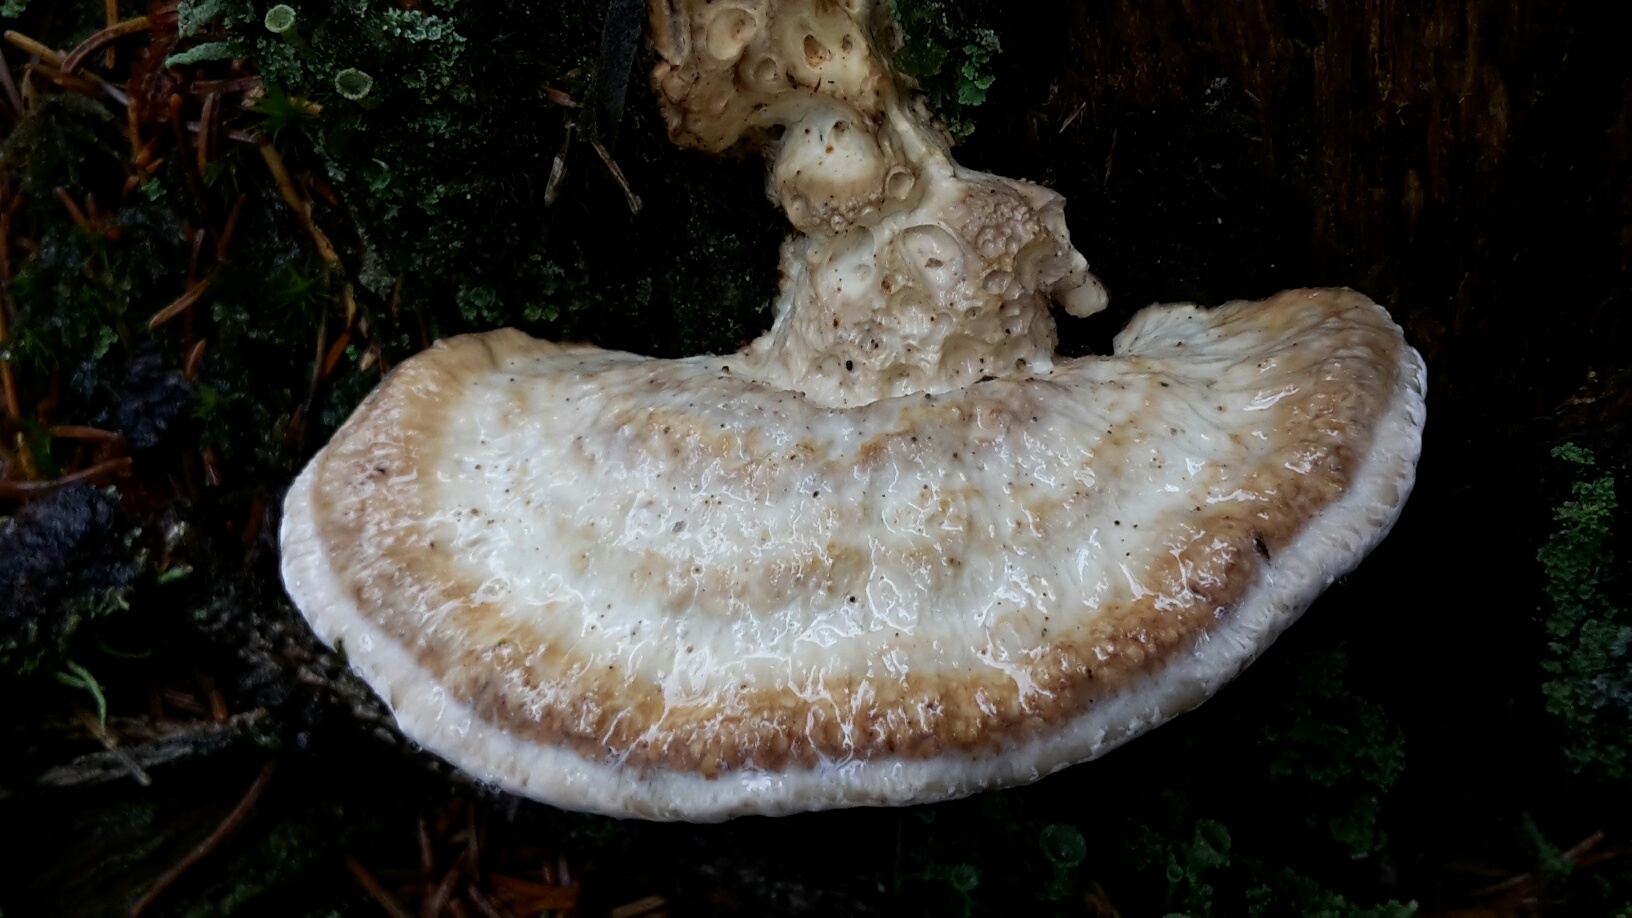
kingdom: Fungi
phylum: Basidiomycota
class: Agaricomycetes
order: Polyporales
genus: Calcipostia
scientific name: Calcipostia guttulata
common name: dråbe-kødporesvamp
